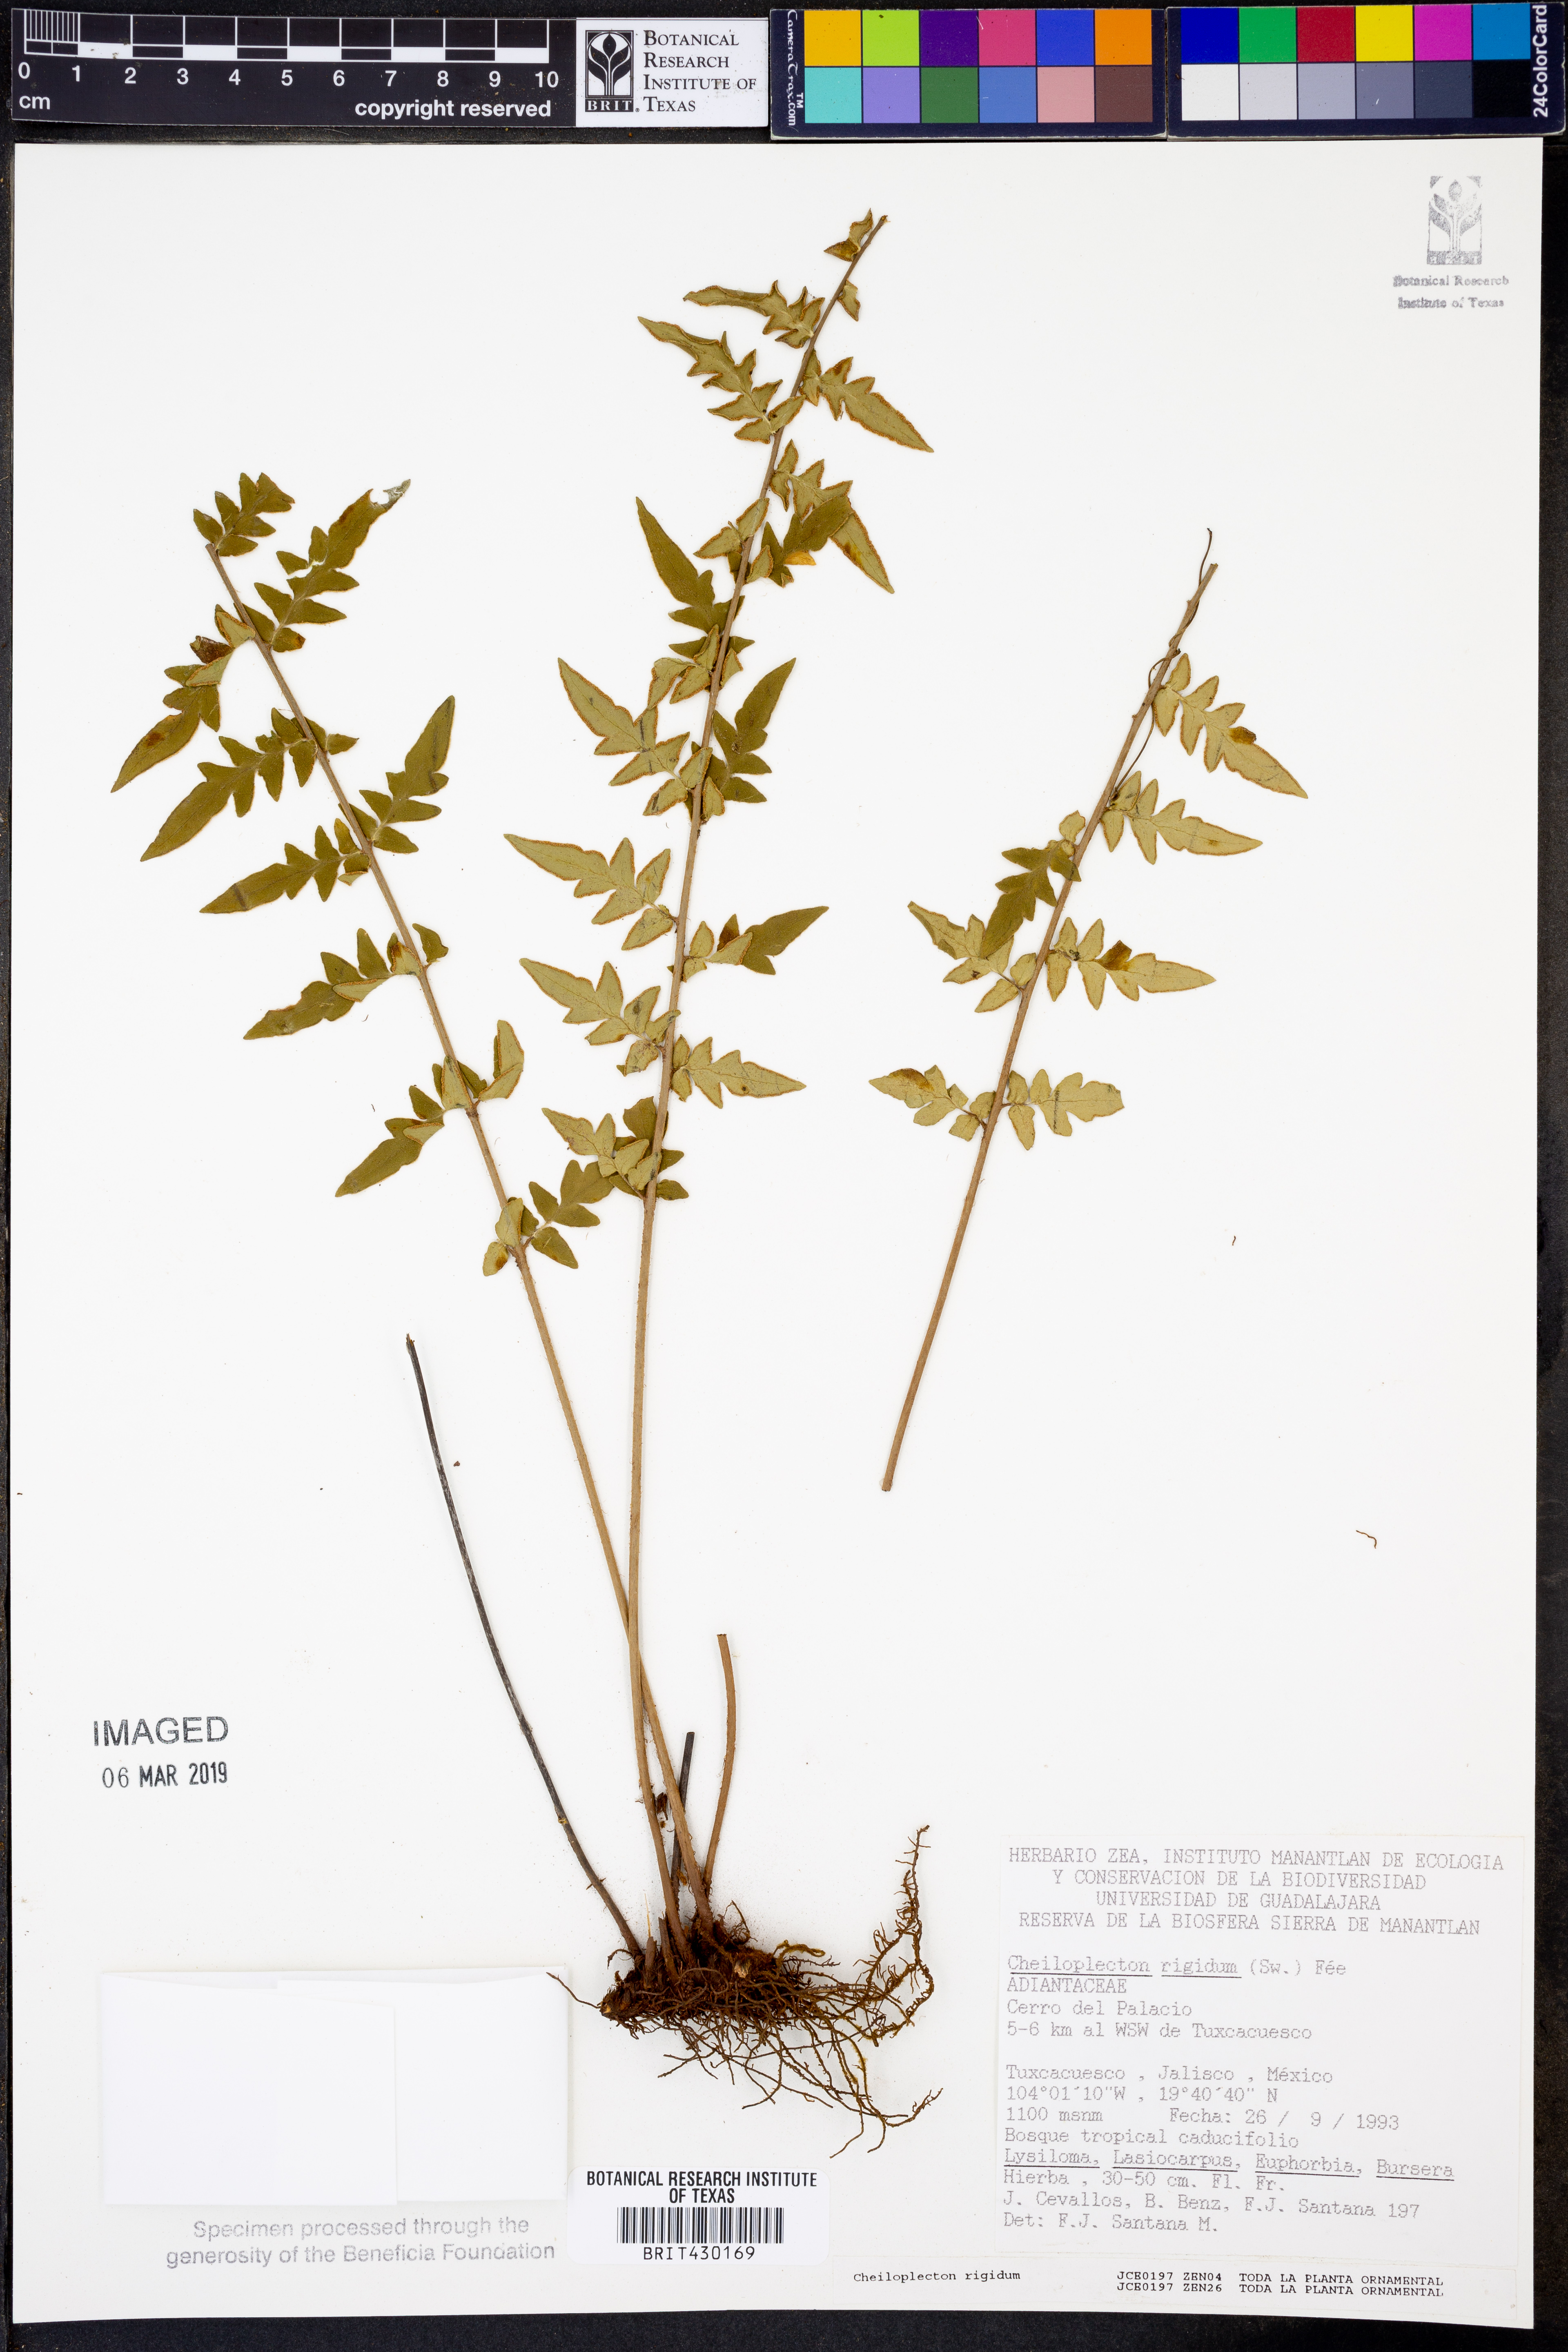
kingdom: Plantae
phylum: Tracheophyta
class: Polypodiopsida
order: Polypodiales
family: Pteridaceae
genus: Cheiloplecton
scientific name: Cheiloplecton rigidum
